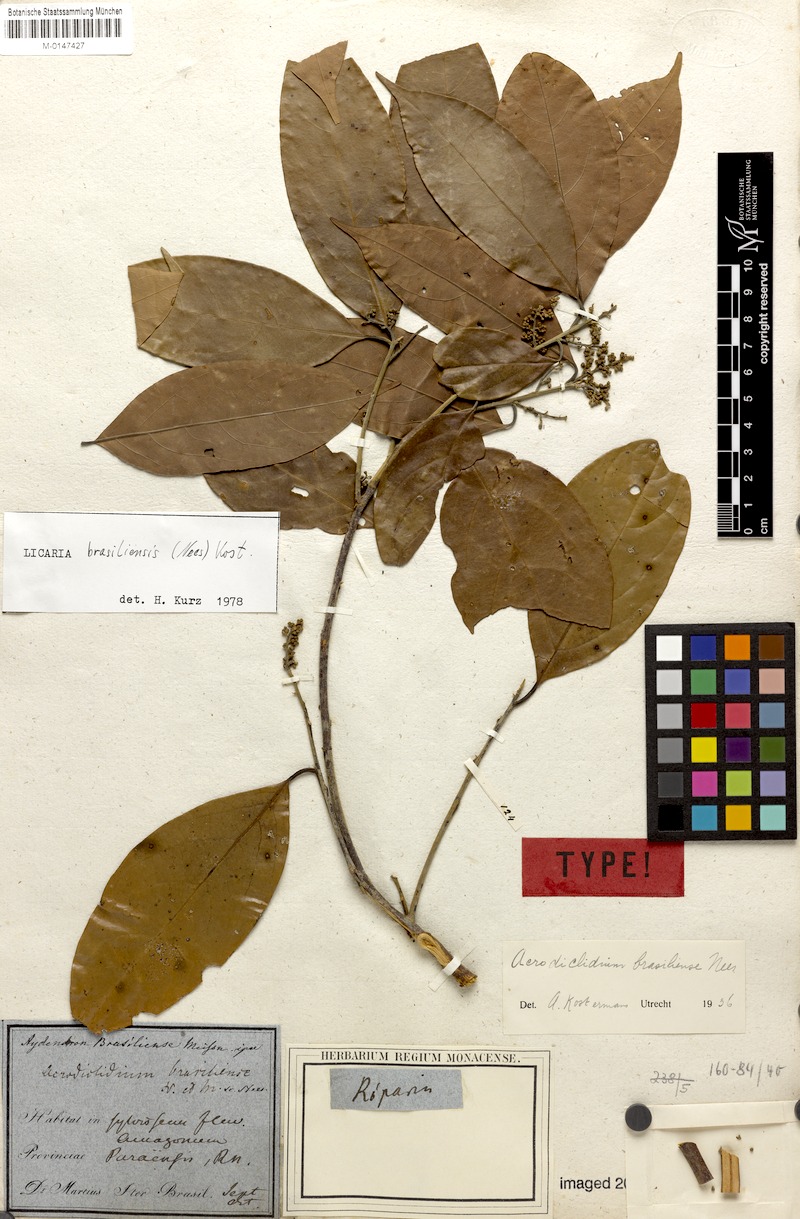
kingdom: Plantae
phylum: Tracheophyta
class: Magnoliopsida
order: Laurales
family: Lauraceae
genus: Licaria
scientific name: Licaria brasiliensis
